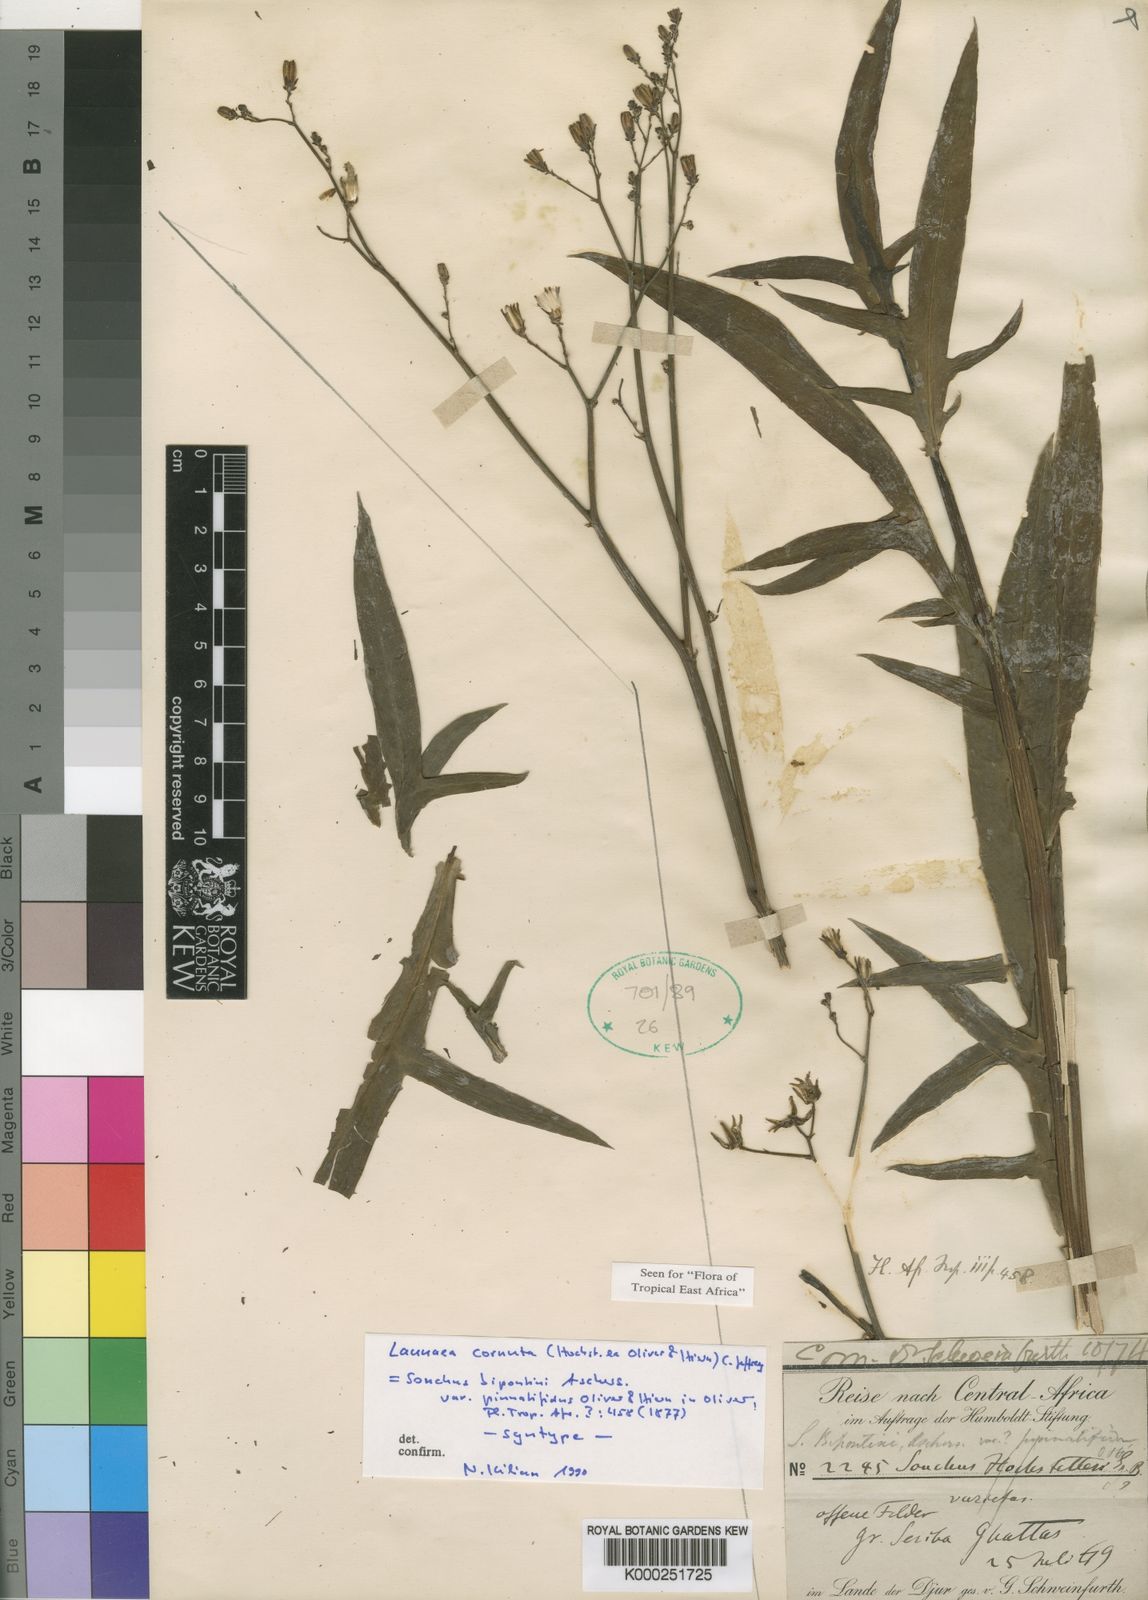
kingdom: Plantae
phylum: Tracheophyta
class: Magnoliopsida
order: Asterales
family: Asteraceae
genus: Launaea
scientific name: Launaea cornuta
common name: Bitter-lettuce
